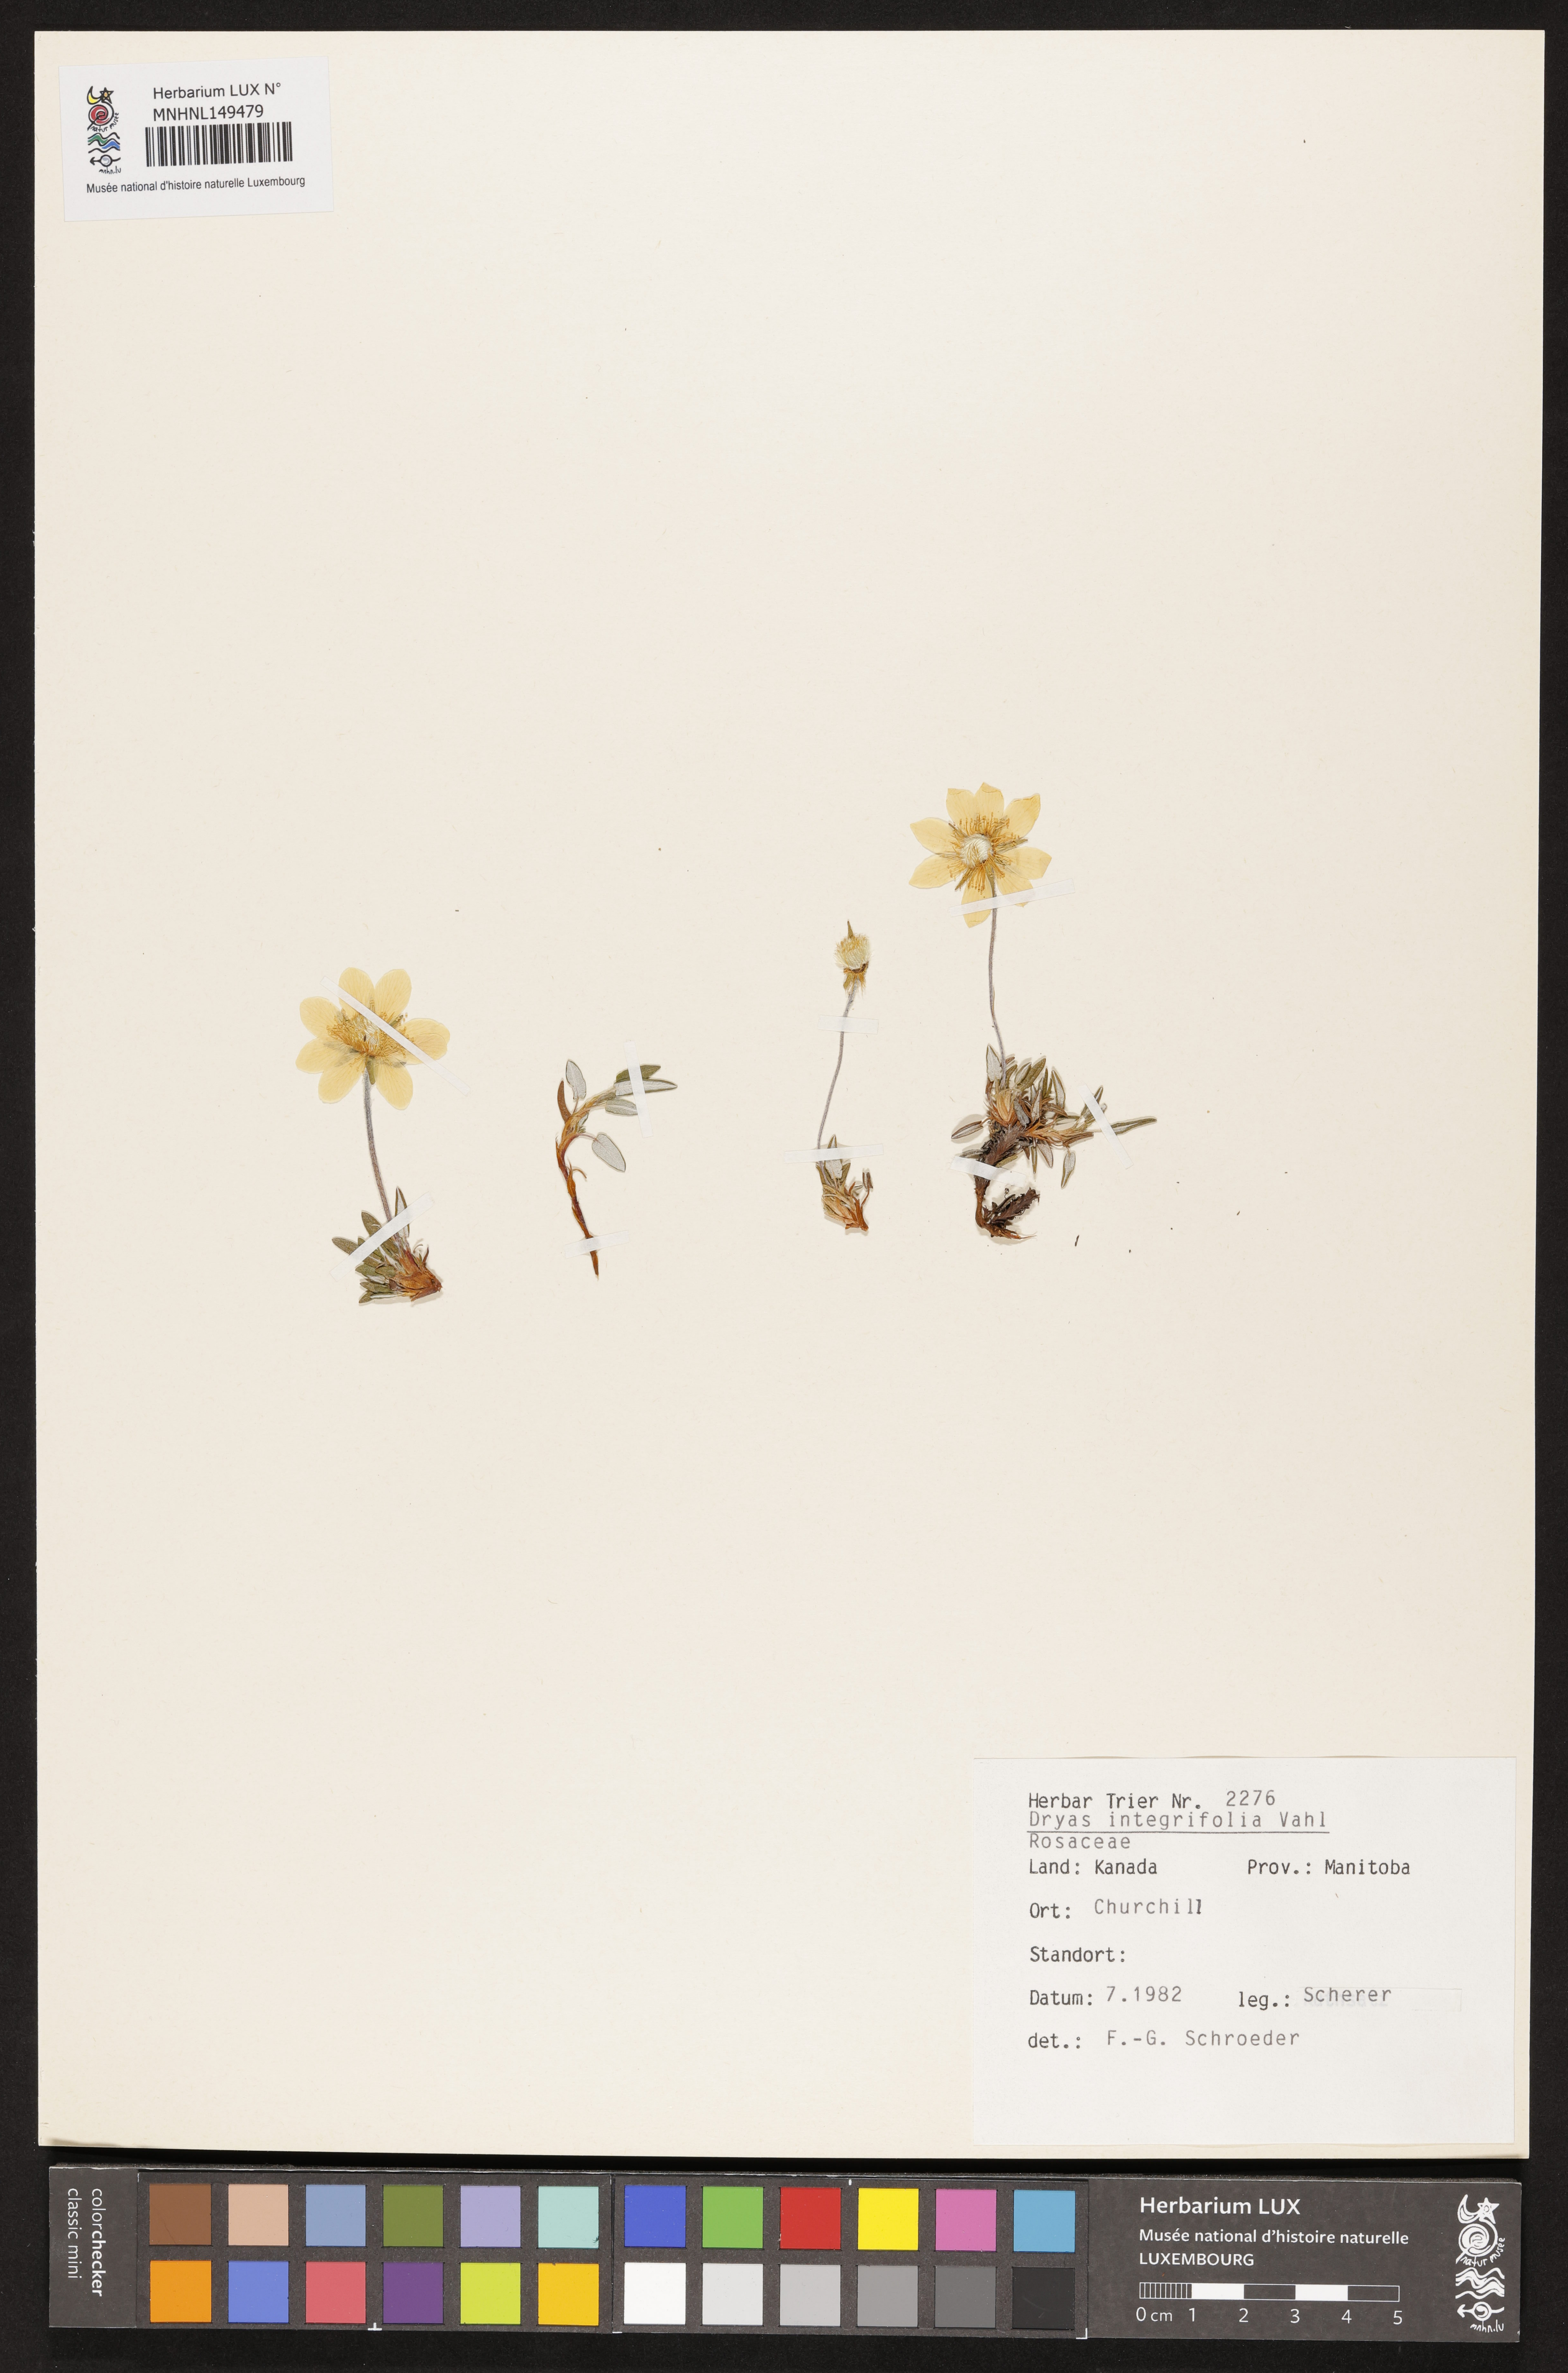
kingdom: Plantae
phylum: Tracheophyta
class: Magnoliopsida
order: Rosales
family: Rosaceae
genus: Dryas
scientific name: Dryas integrifolia
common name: Entire-leaved mountain avens
